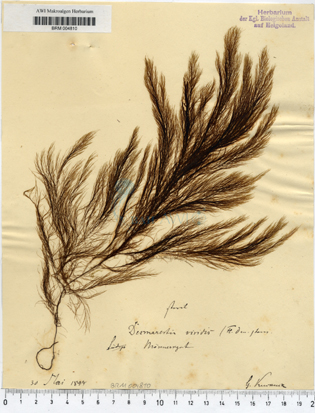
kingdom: Chromista
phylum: Ochrophyta
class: Phaeophyceae
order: Desmarestiales
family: Desmarestiaceae
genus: Desmarestia
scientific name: Desmarestia viridis
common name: Stringy acid kelp
